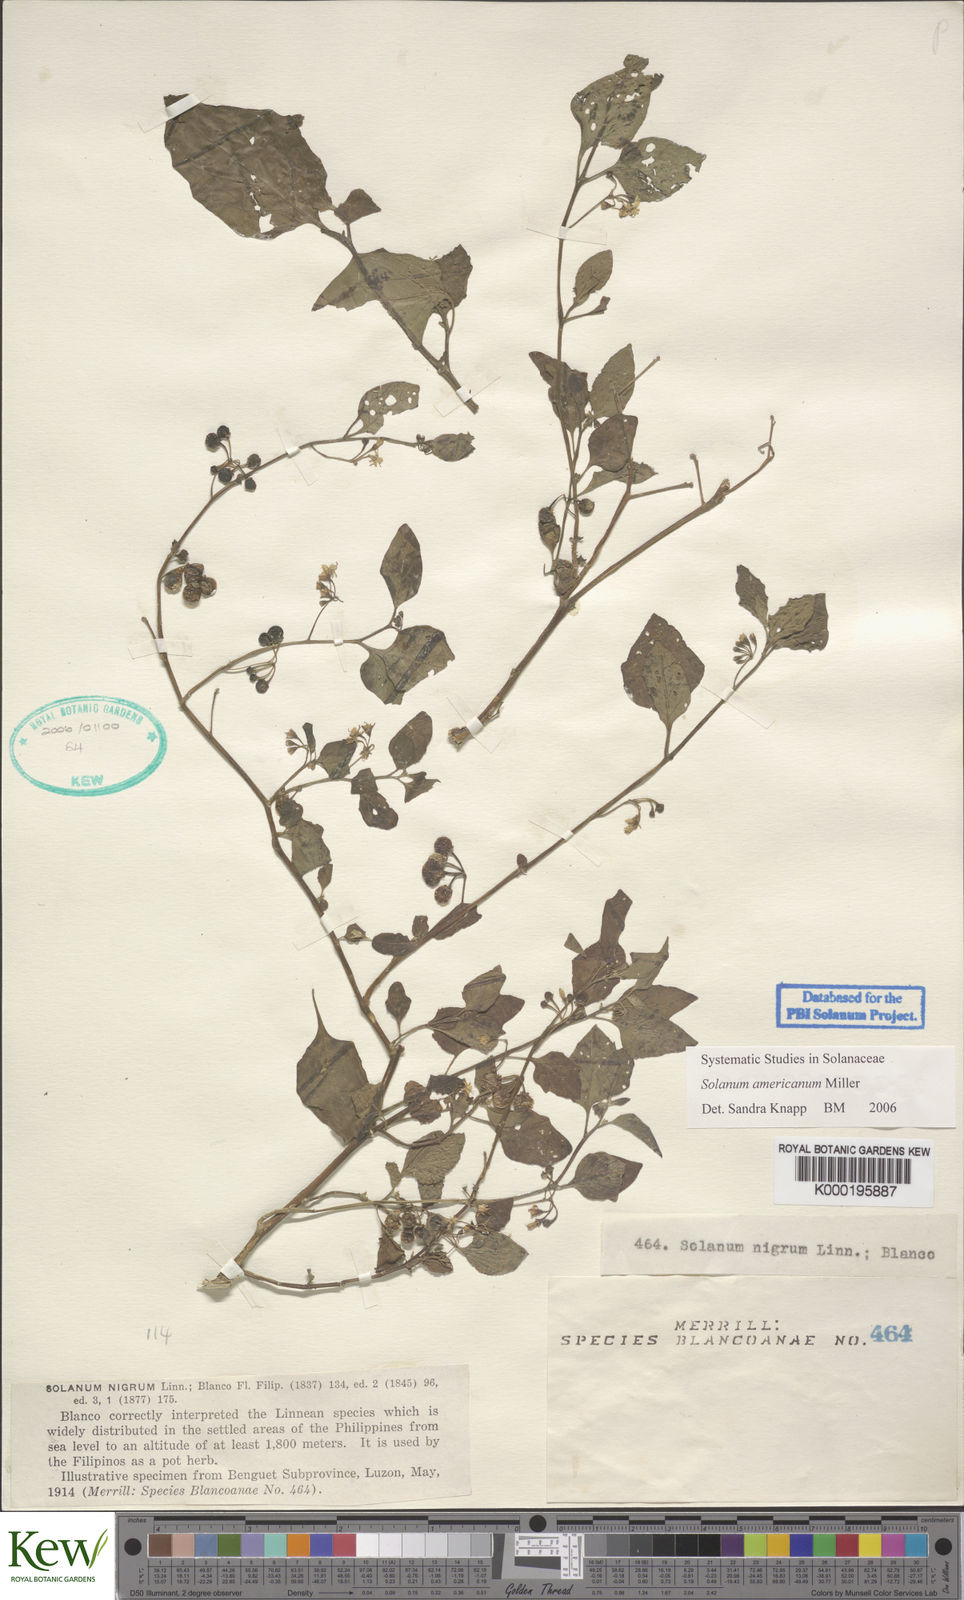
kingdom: Plantae
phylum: Tracheophyta
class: Magnoliopsida
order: Solanales
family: Solanaceae
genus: Solanum
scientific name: Solanum americanum
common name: American black nightshade
